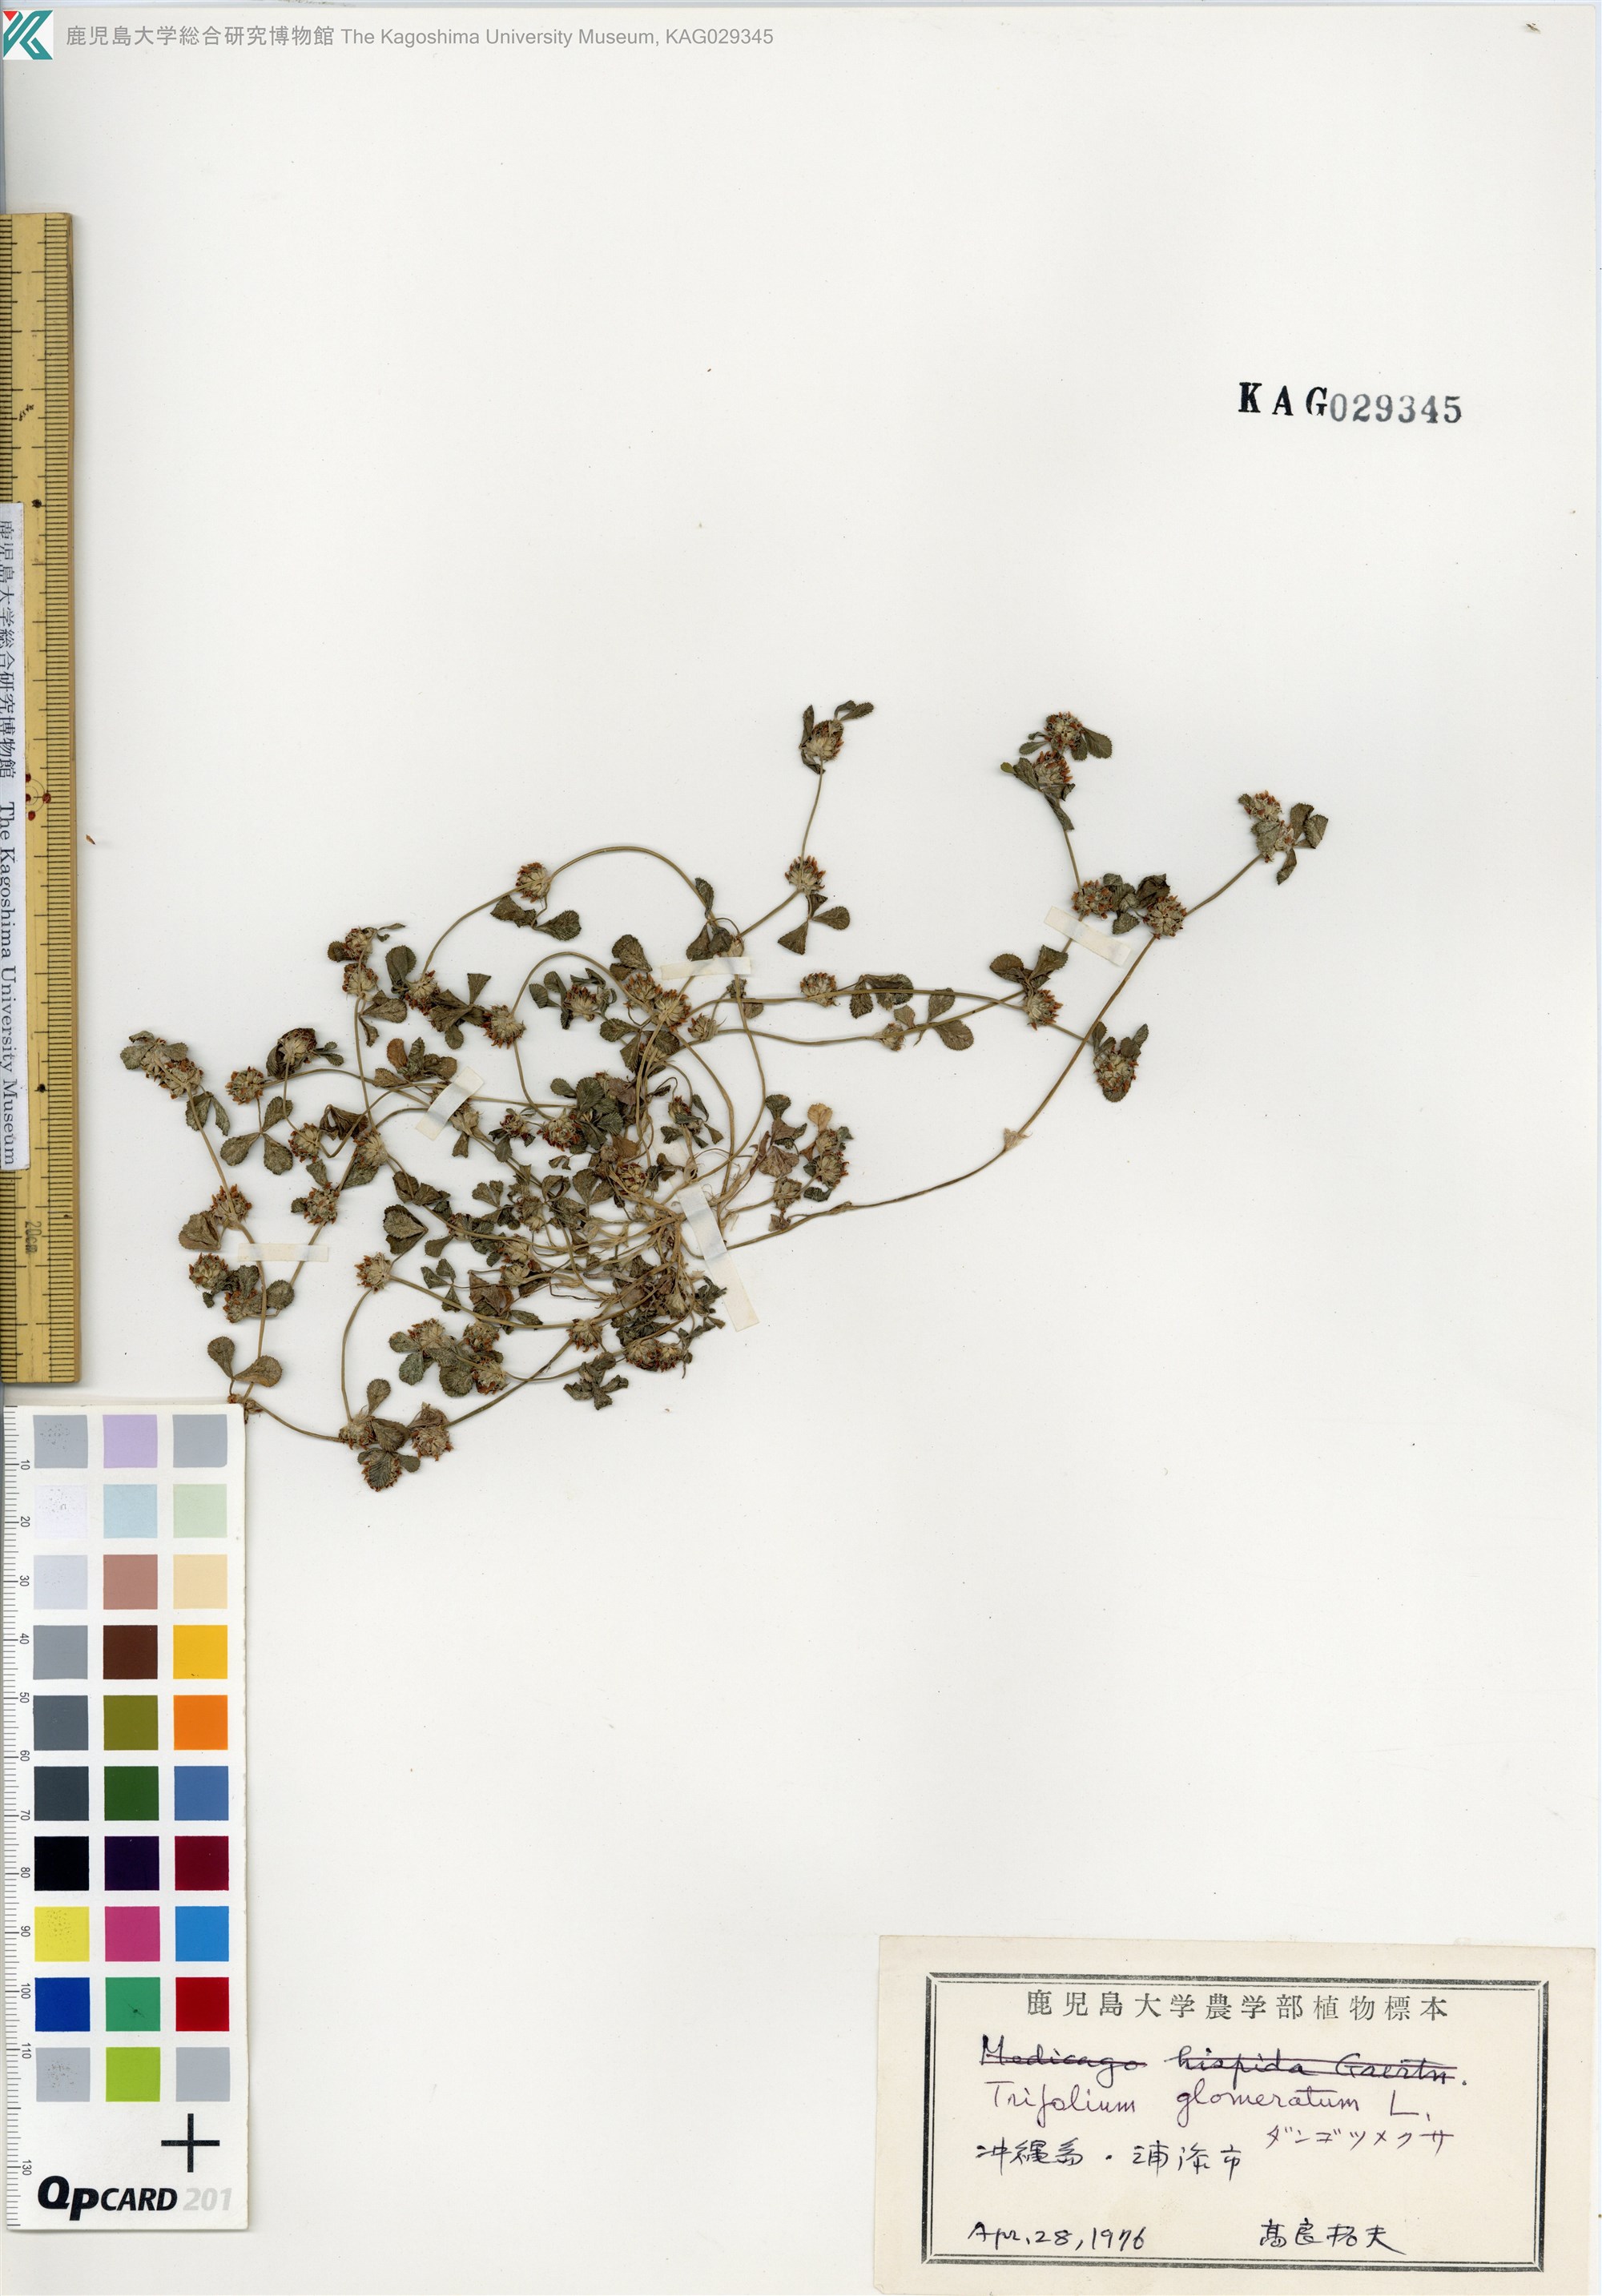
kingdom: Plantae
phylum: Tracheophyta
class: Magnoliopsida
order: Fabales
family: Fabaceae
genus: Trifolium
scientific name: Trifolium glomeratum
